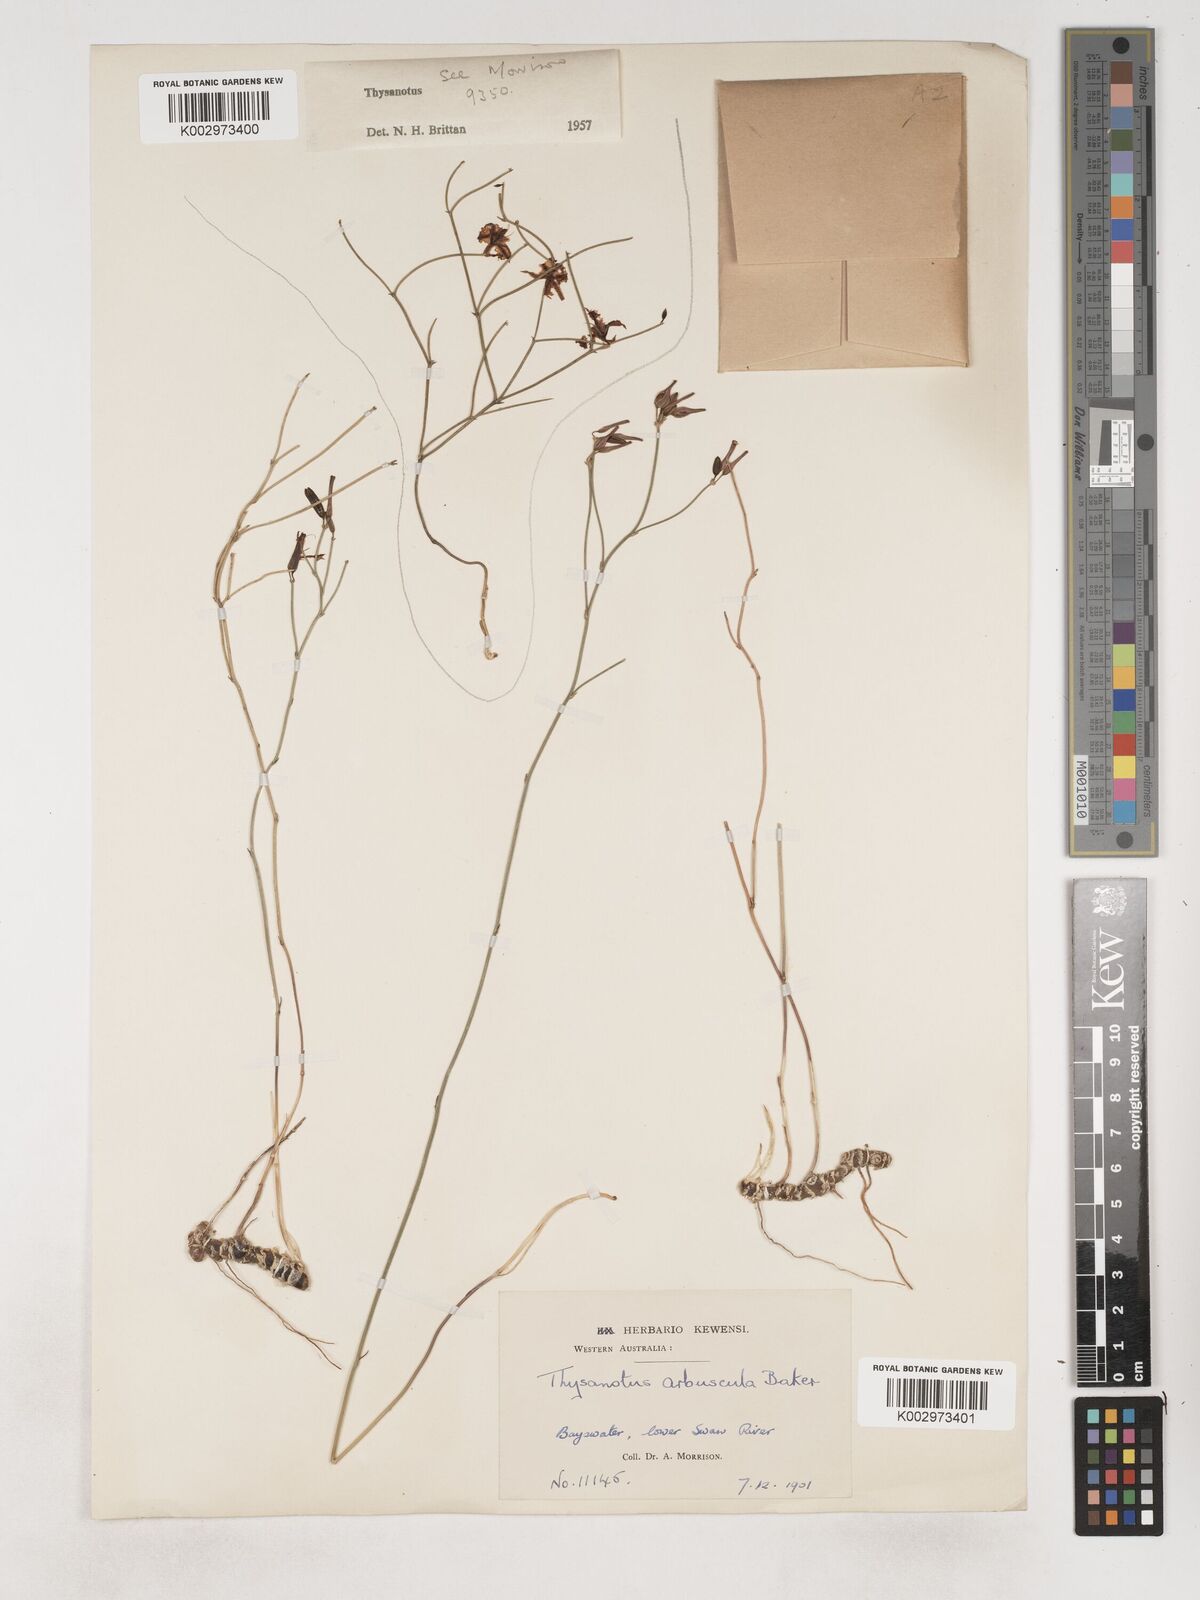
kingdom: Plantae
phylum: Tracheophyta
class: Liliopsida
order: Asparagales
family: Asparagaceae
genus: Thysanotus
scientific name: Thysanotus
